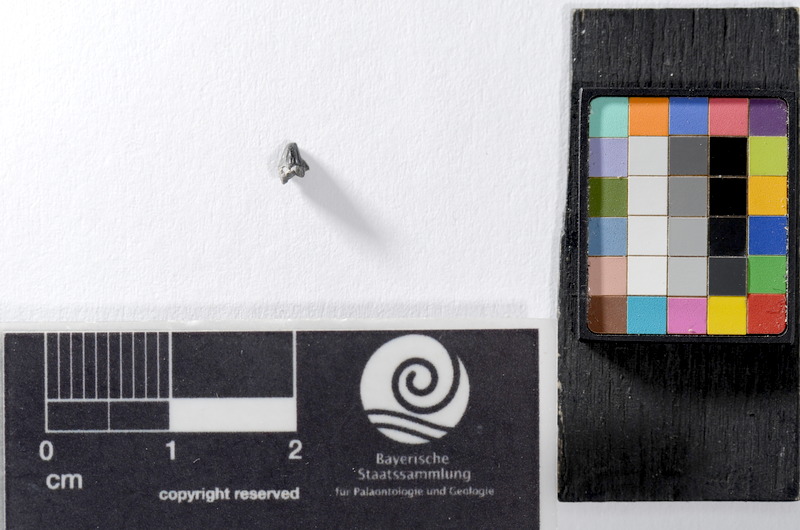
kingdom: Animalia
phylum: Chordata
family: Saurichthyidae
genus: Saurichthys
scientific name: Saurichthys
